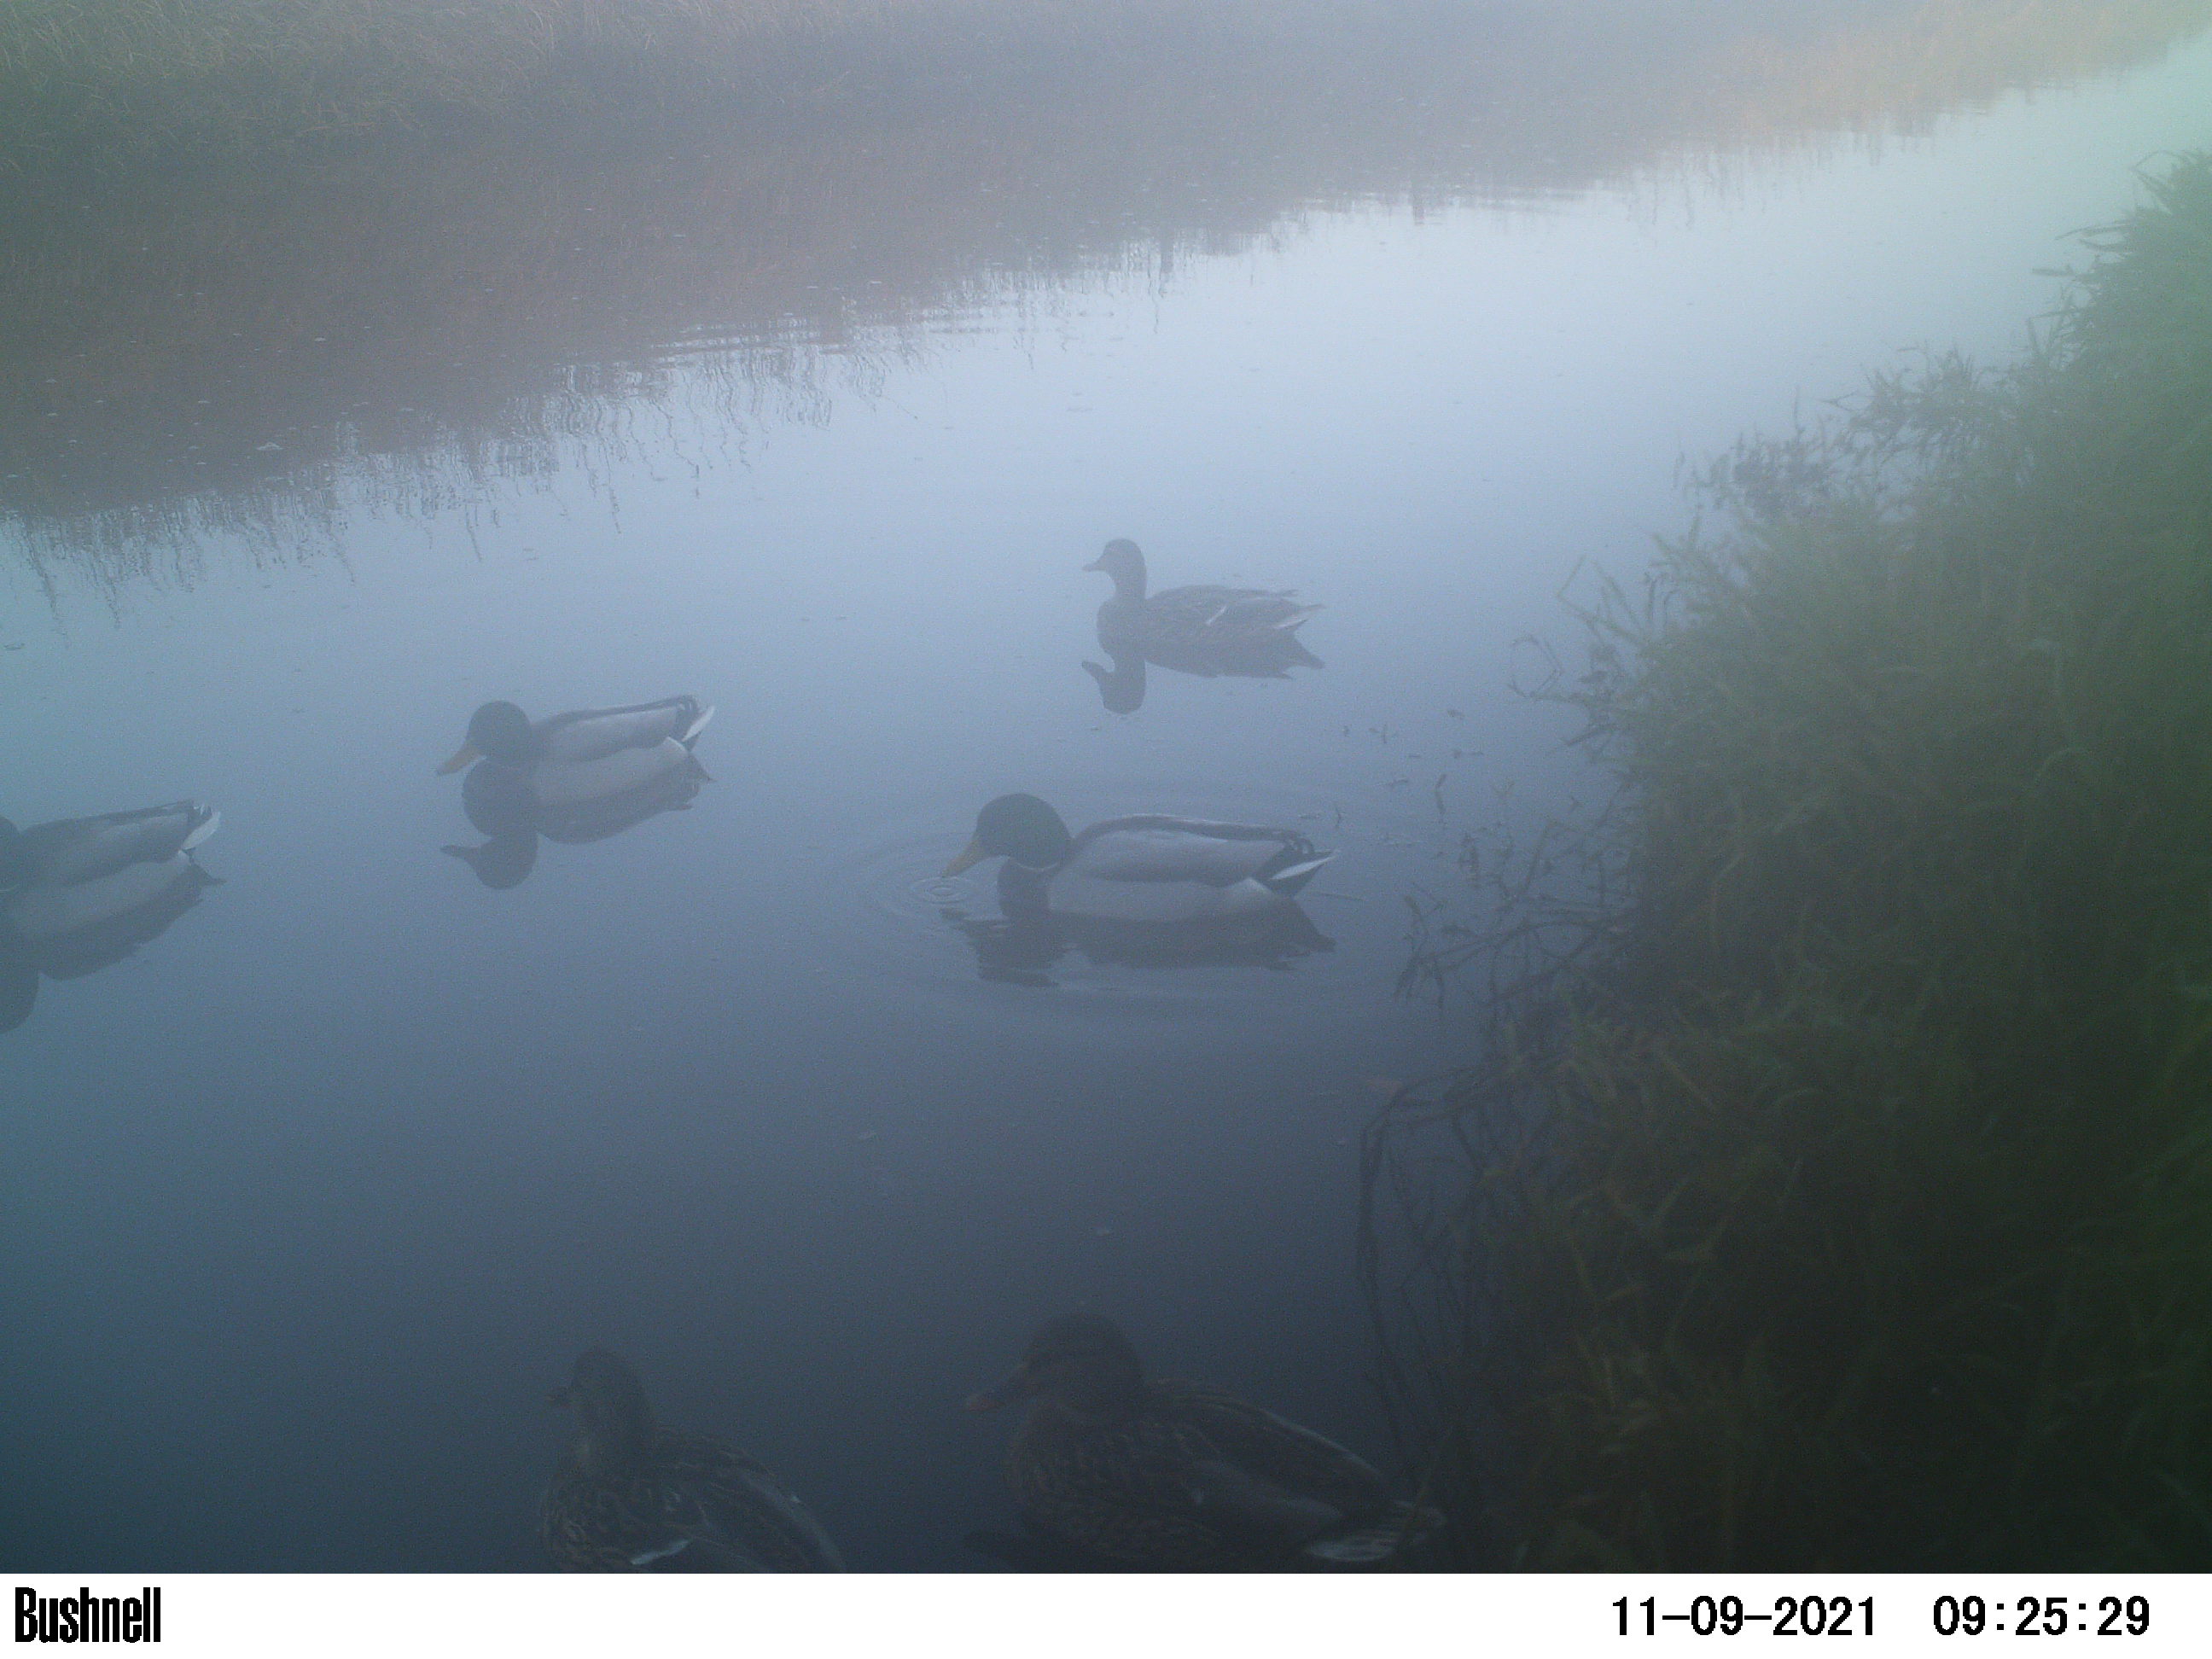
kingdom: Animalia
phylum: Chordata
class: Aves
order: Anseriformes
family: Anatidae
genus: Anas
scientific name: Anas
